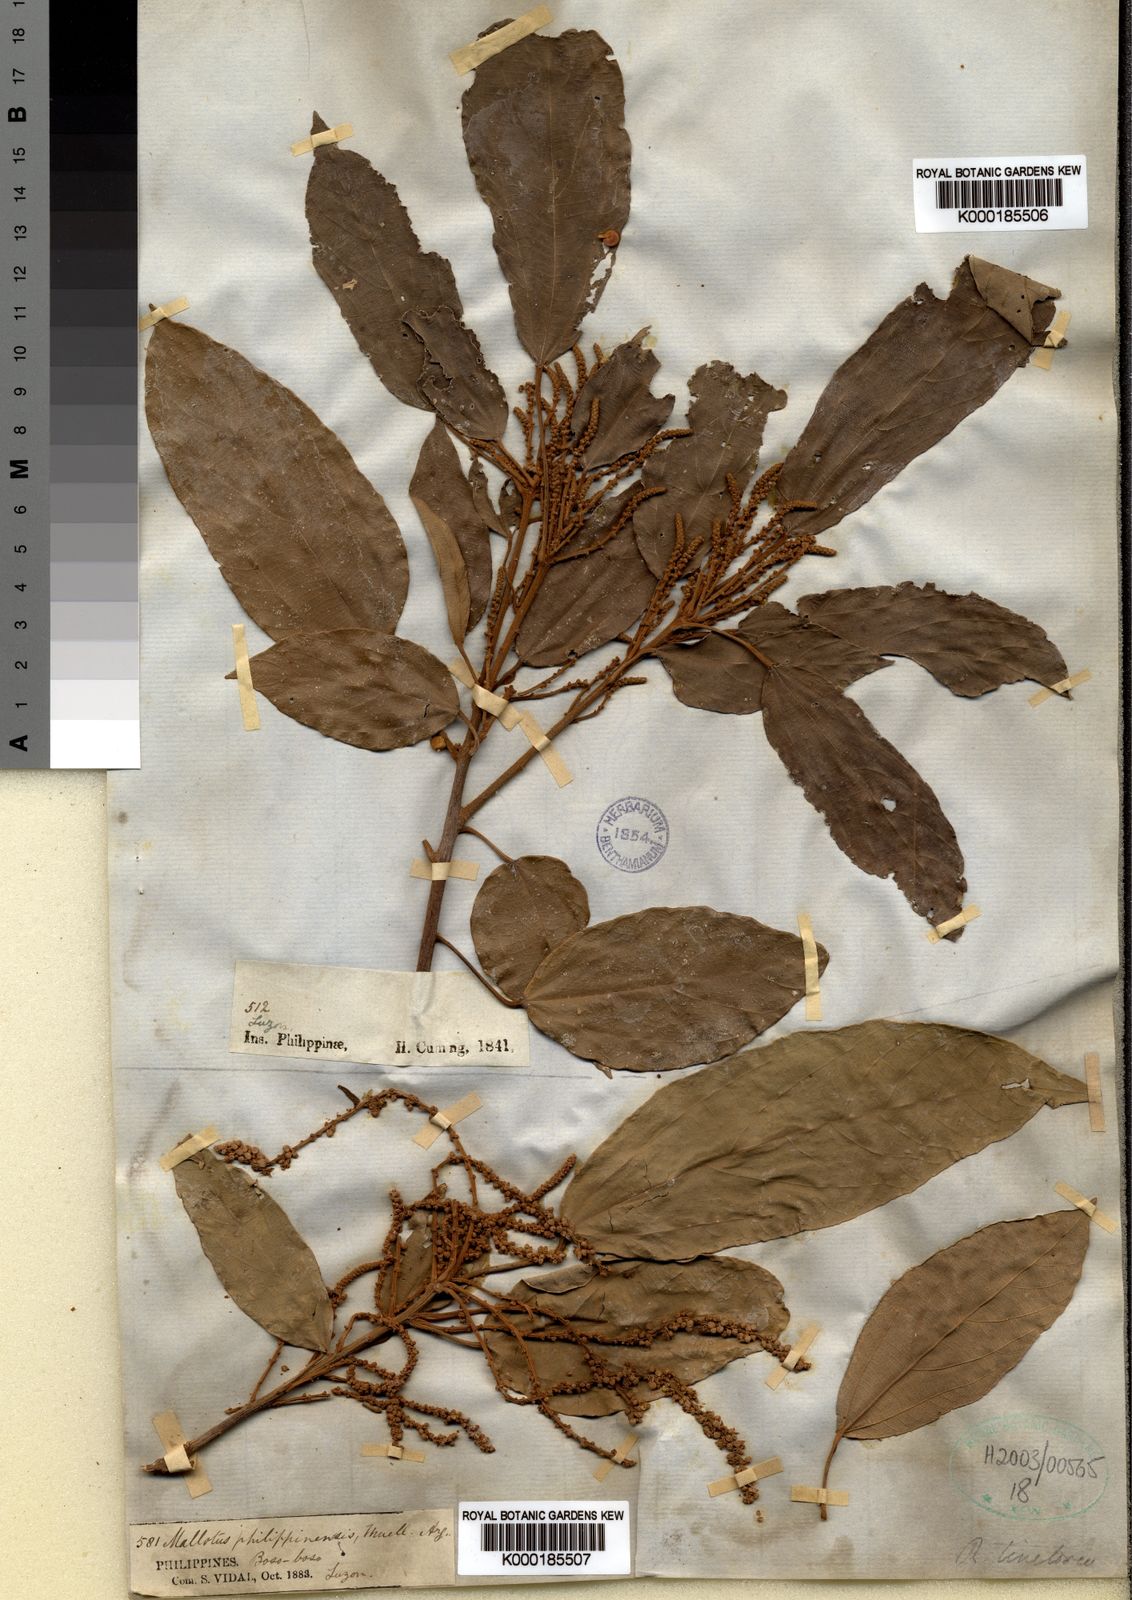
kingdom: Plantae
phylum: Tracheophyta
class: Magnoliopsida
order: Malpighiales
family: Euphorbiaceae
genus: Mallotus
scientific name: Mallotus philippensis
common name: Kamala tree
